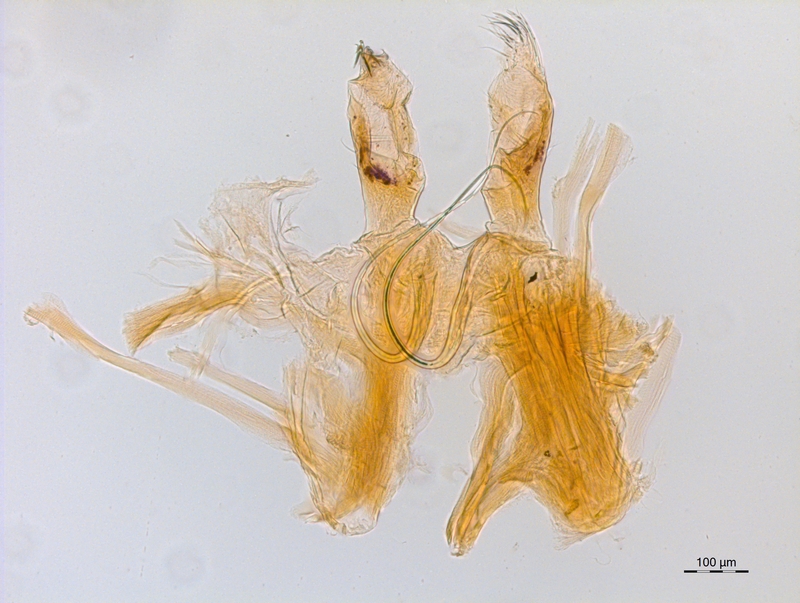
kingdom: Animalia
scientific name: Animalia
